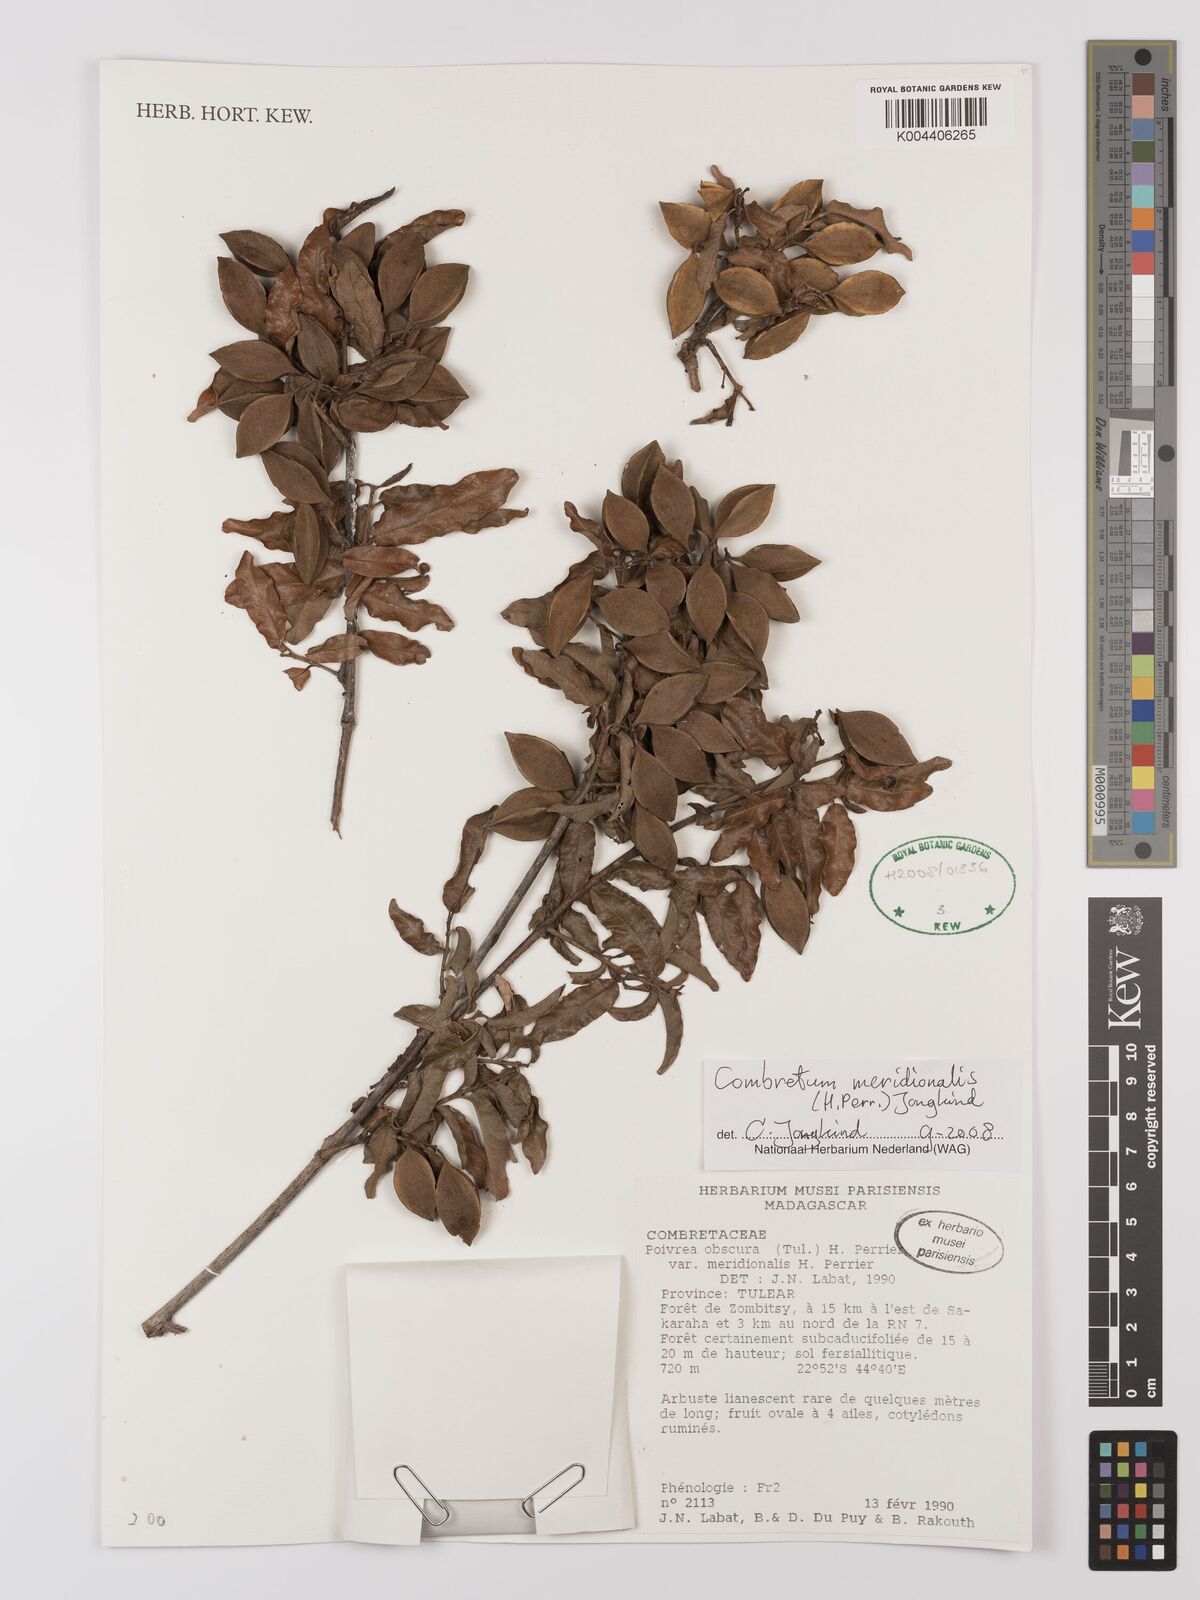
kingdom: Plantae
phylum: Tracheophyta
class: Magnoliopsida
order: Myrtales
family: Combretaceae
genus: Combretum
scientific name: Combretum meridionalis
